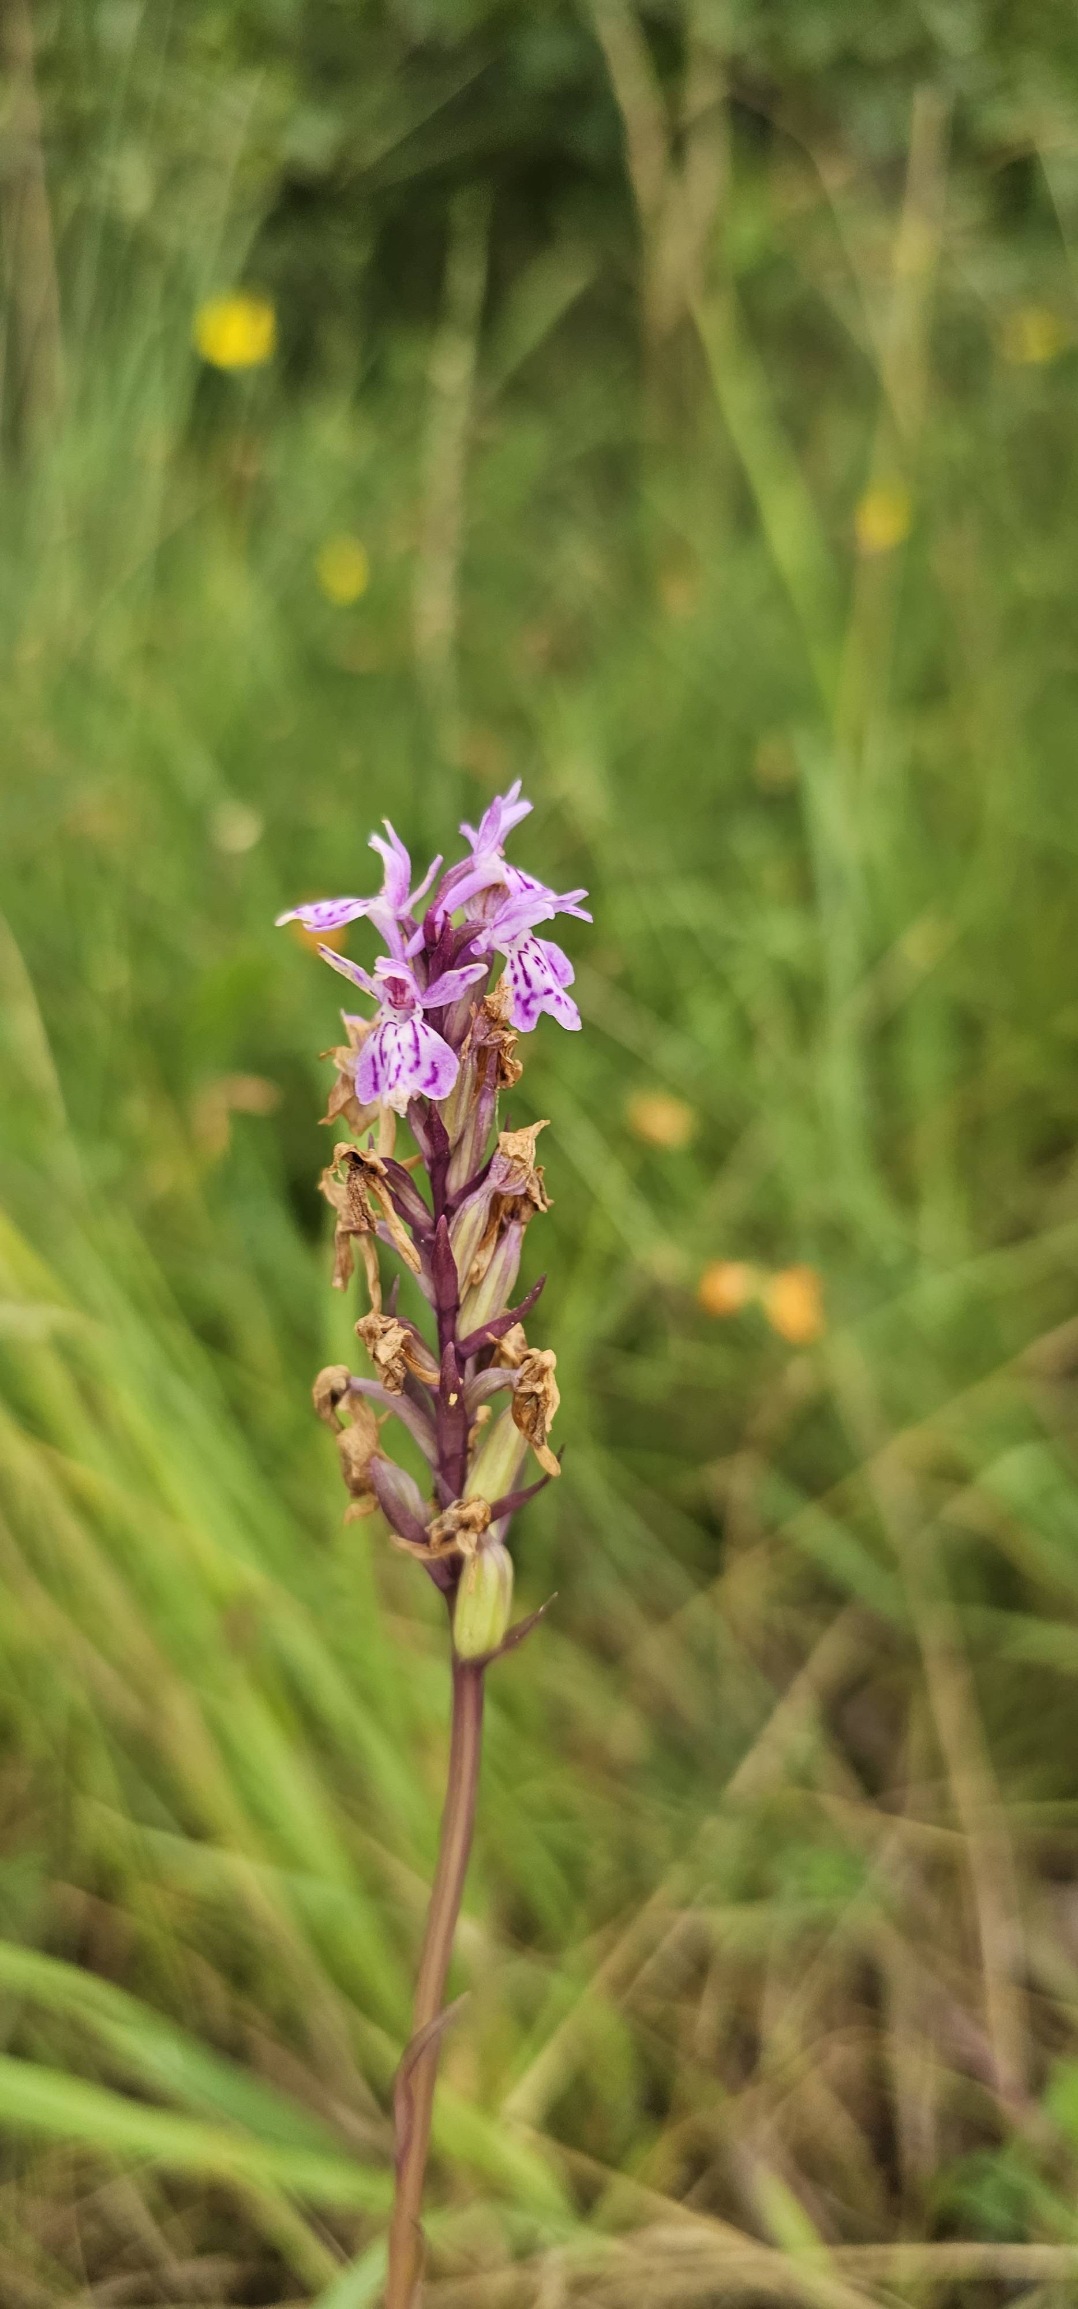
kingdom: Plantae
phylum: Tracheophyta
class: Liliopsida
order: Asparagales
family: Orchidaceae
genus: Dactylorhiza
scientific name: Dactylorhiza maculata
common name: Plettet gøgeurt
